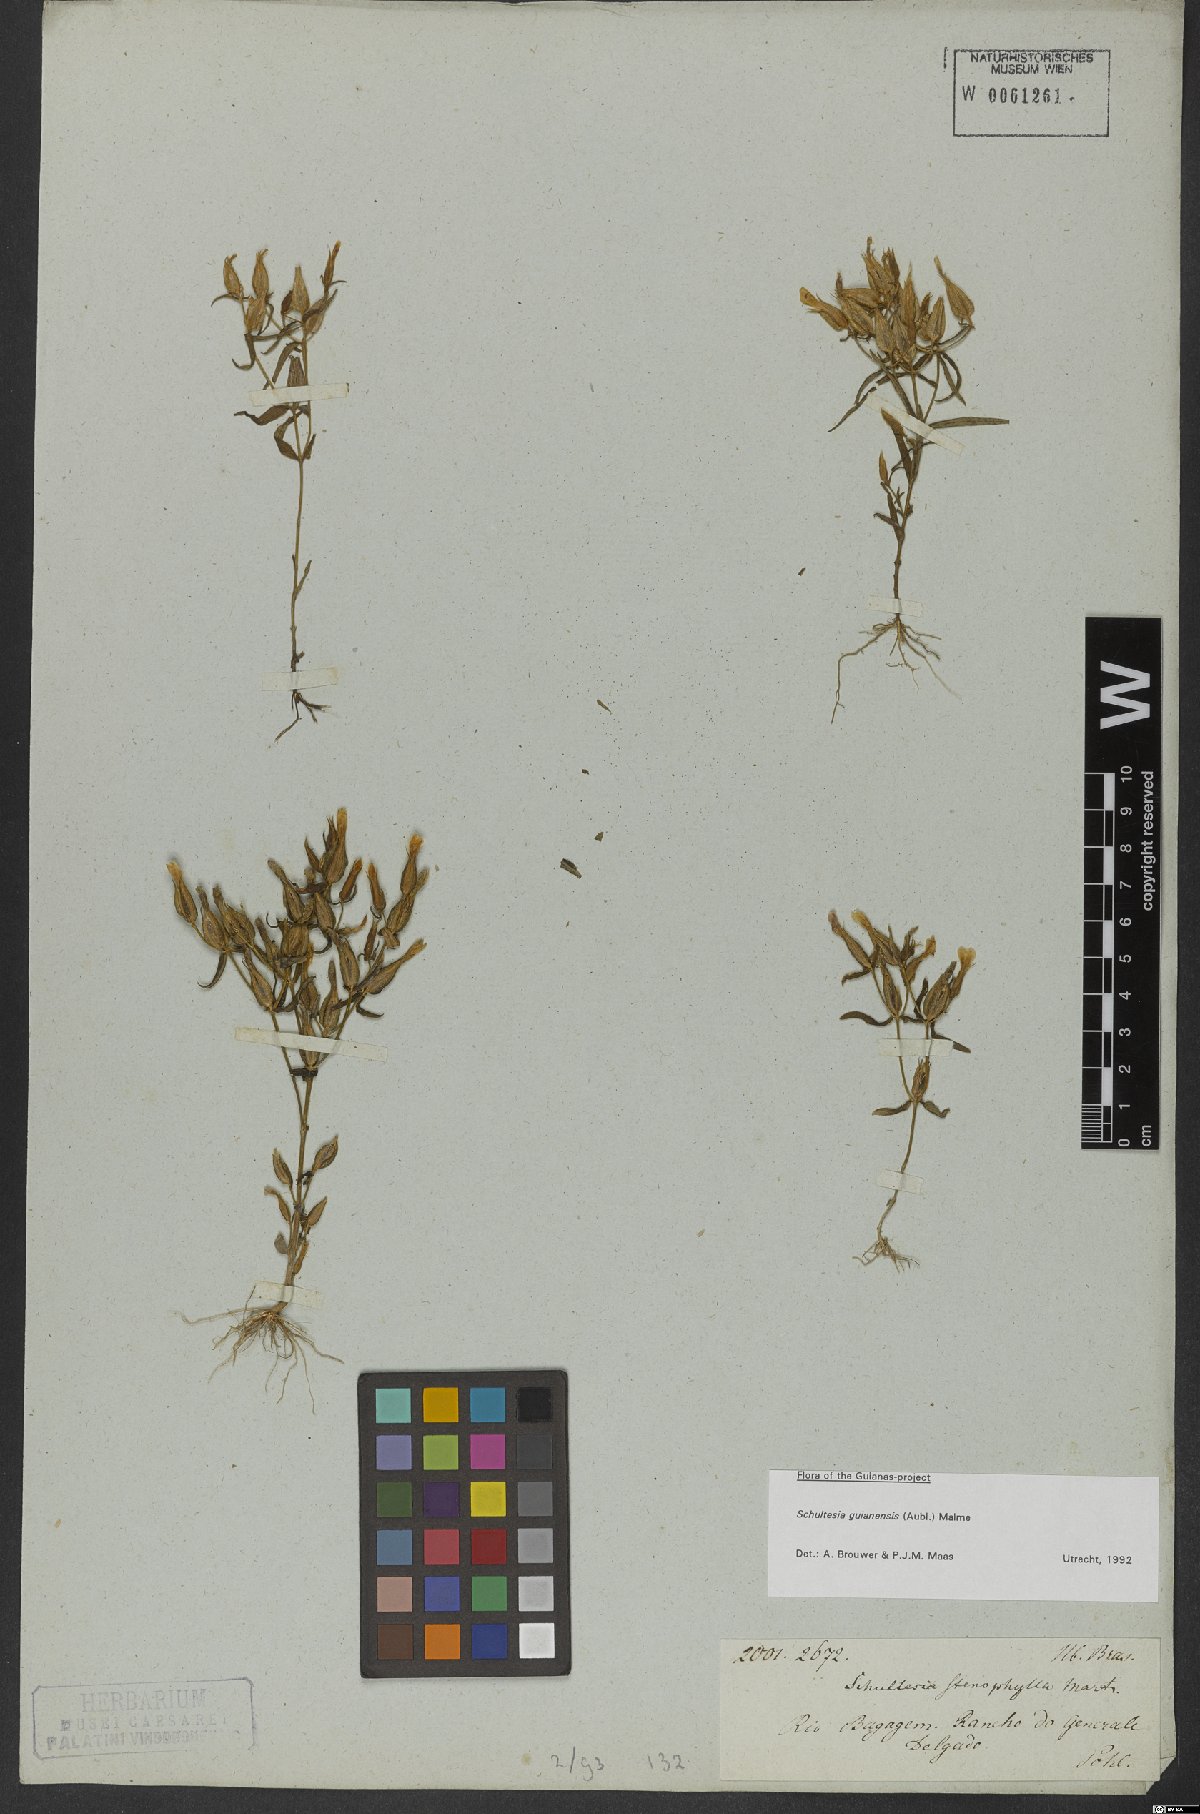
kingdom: Plantae
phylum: Tracheophyta
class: Magnoliopsida
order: Gentianales
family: Gentianaceae
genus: Schultesia
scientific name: Schultesia guianensis
